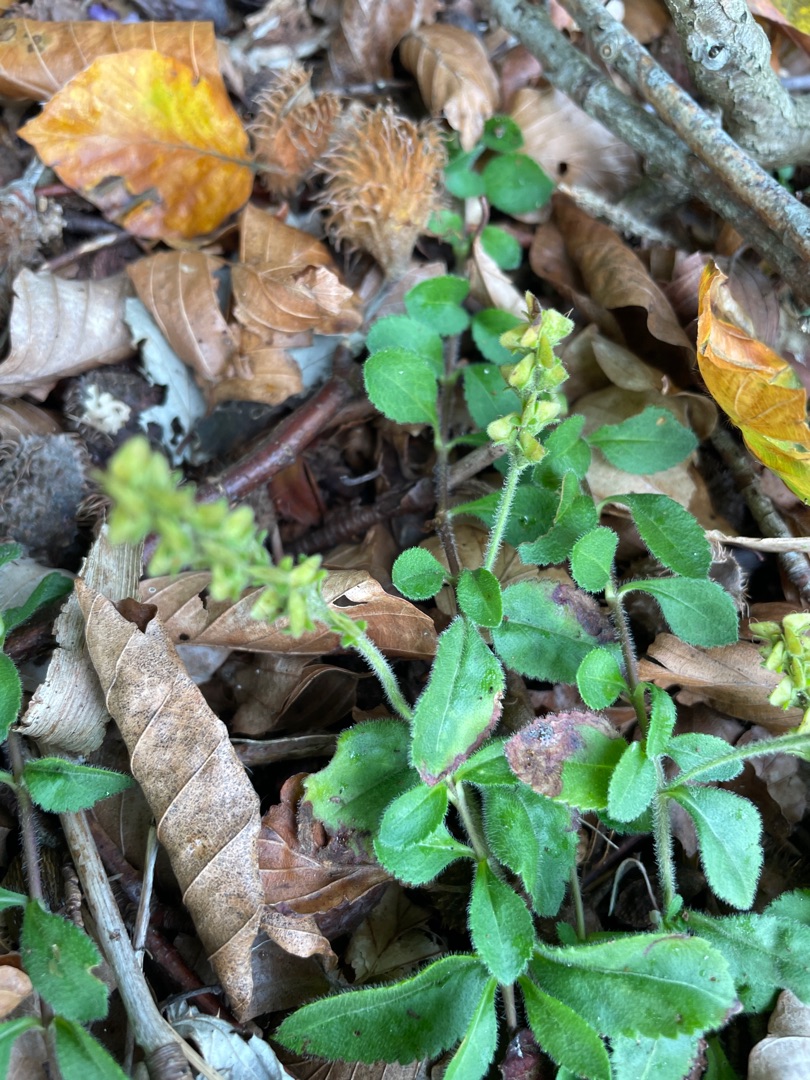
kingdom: Plantae
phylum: Tracheophyta
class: Magnoliopsida
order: Lamiales
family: Plantaginaceae
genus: Veronica
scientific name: Veronica officinalis
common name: Læge-ærenpris
